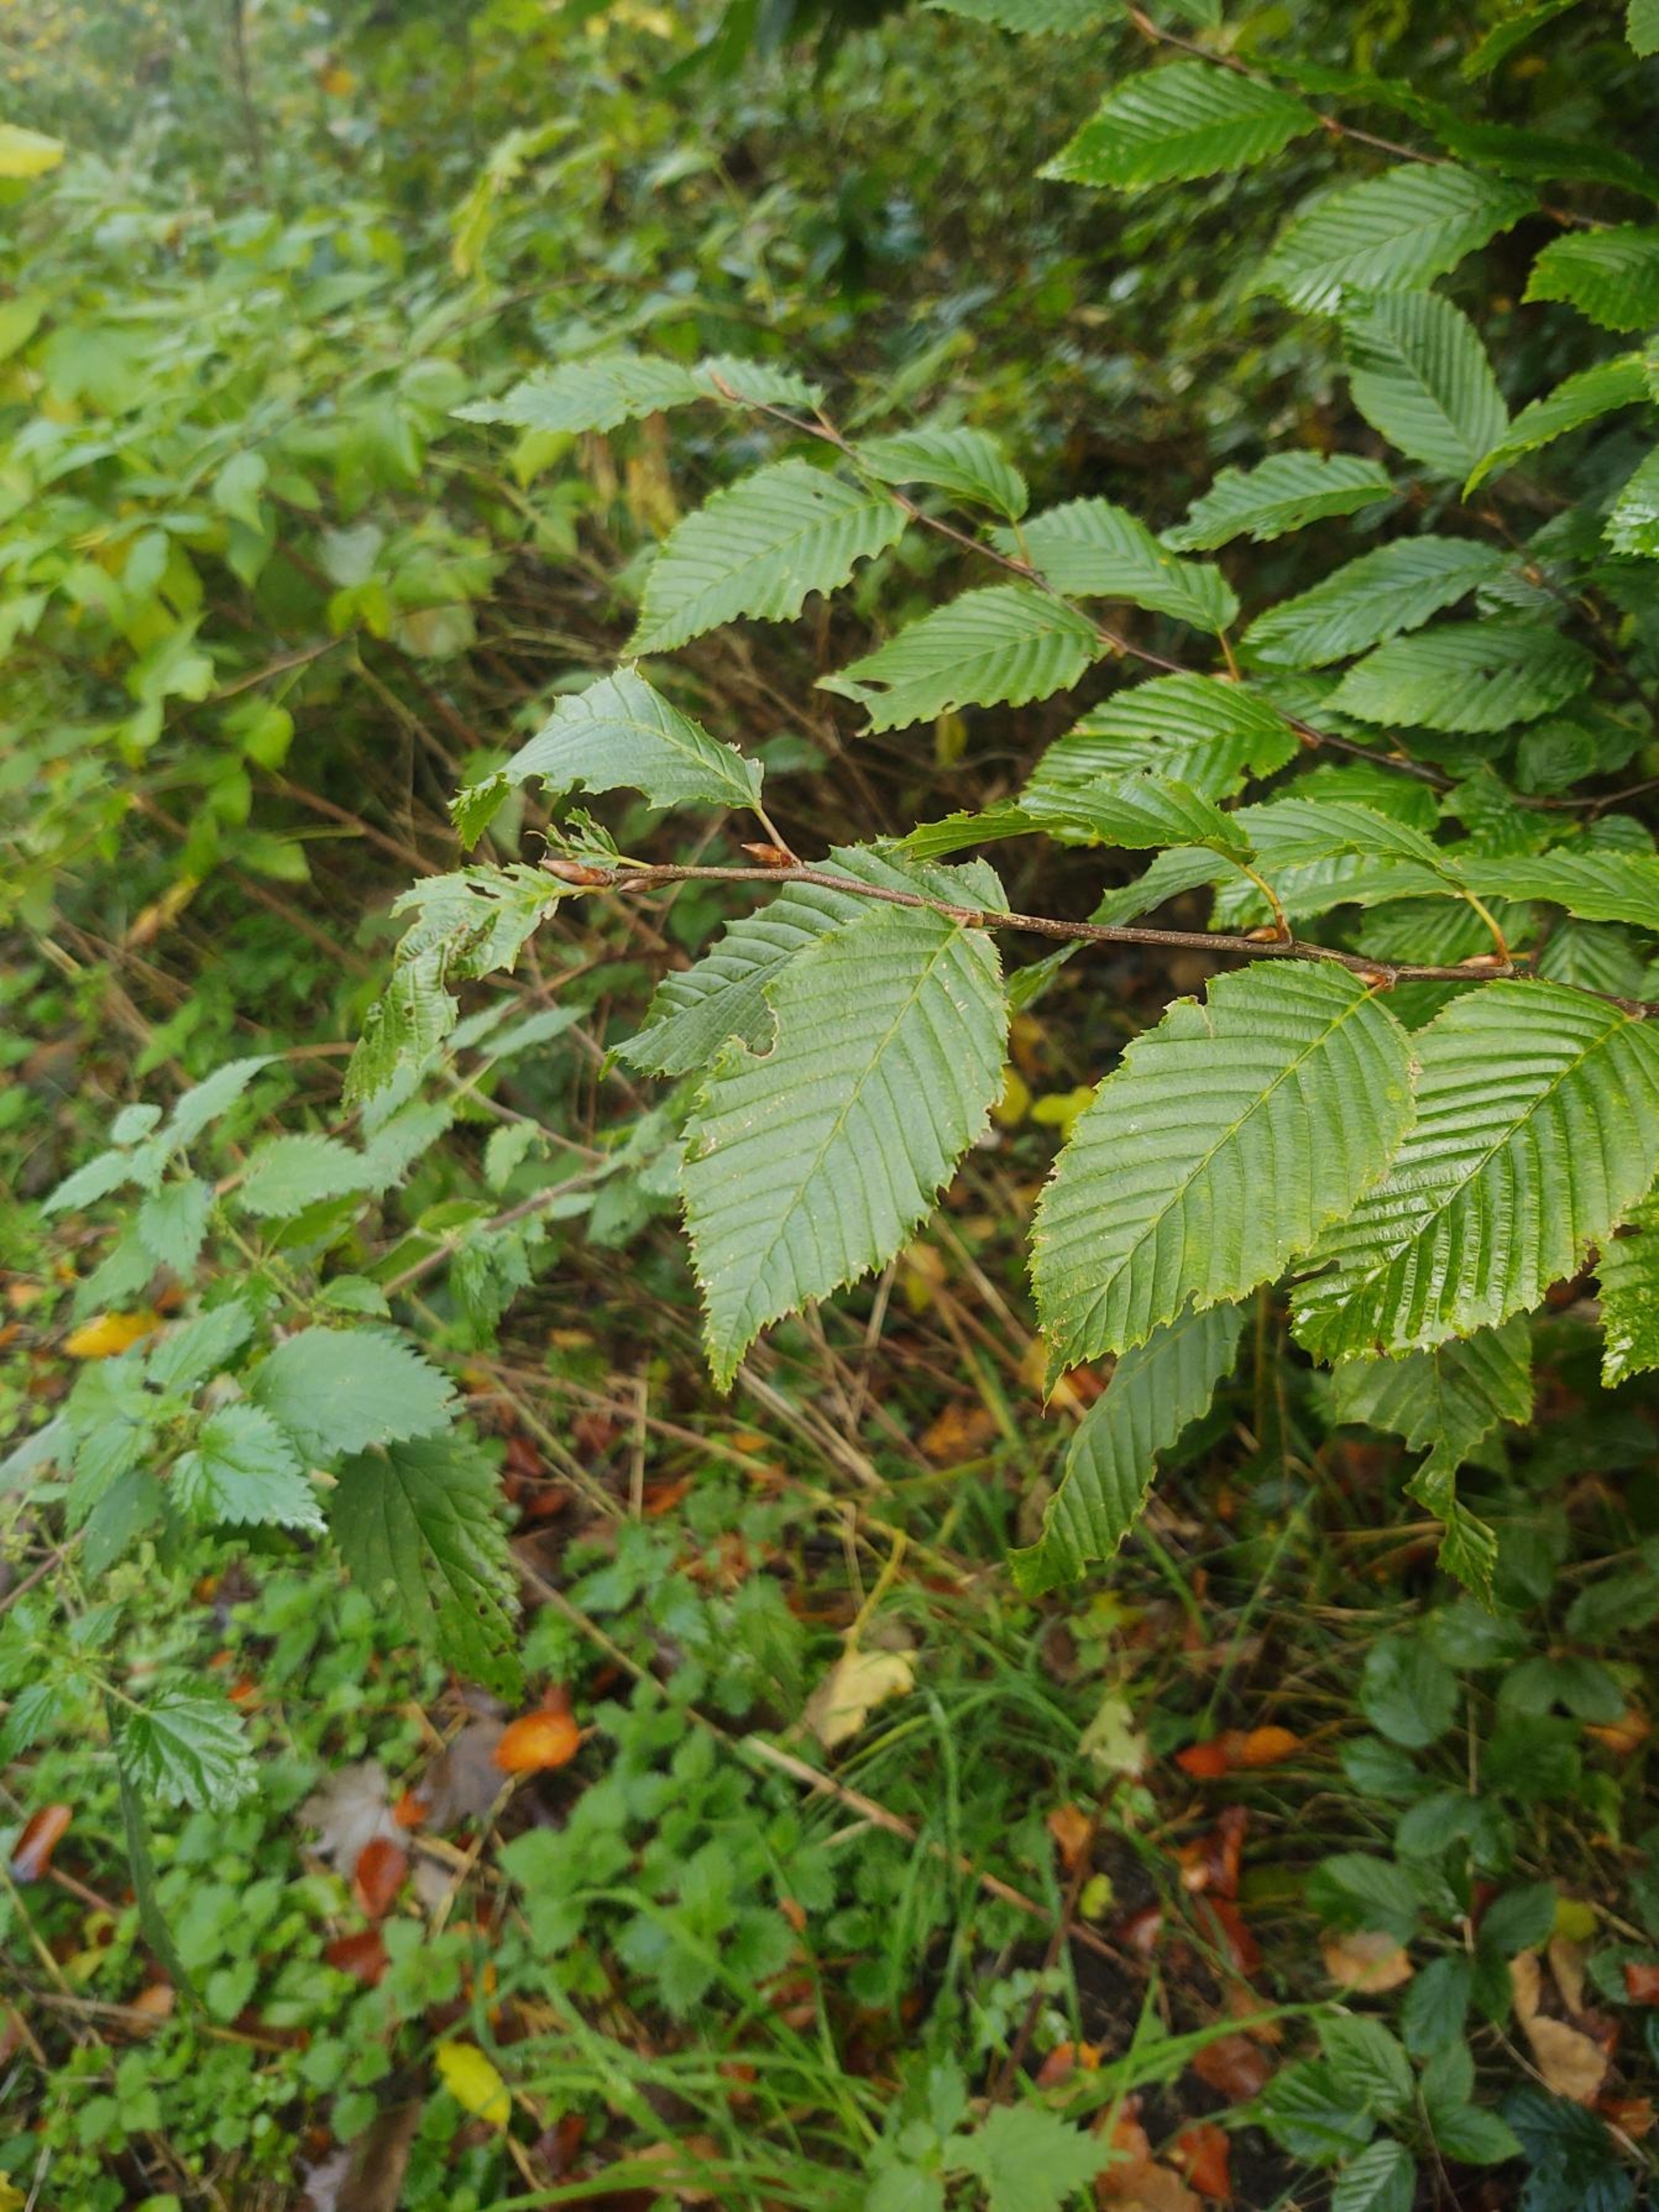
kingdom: Plantae
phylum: Tracheophyta
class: Magnoliopsida
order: Fagales
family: Betulaceae
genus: Carpinus
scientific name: Carpinus betulus
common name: Avnbøg
